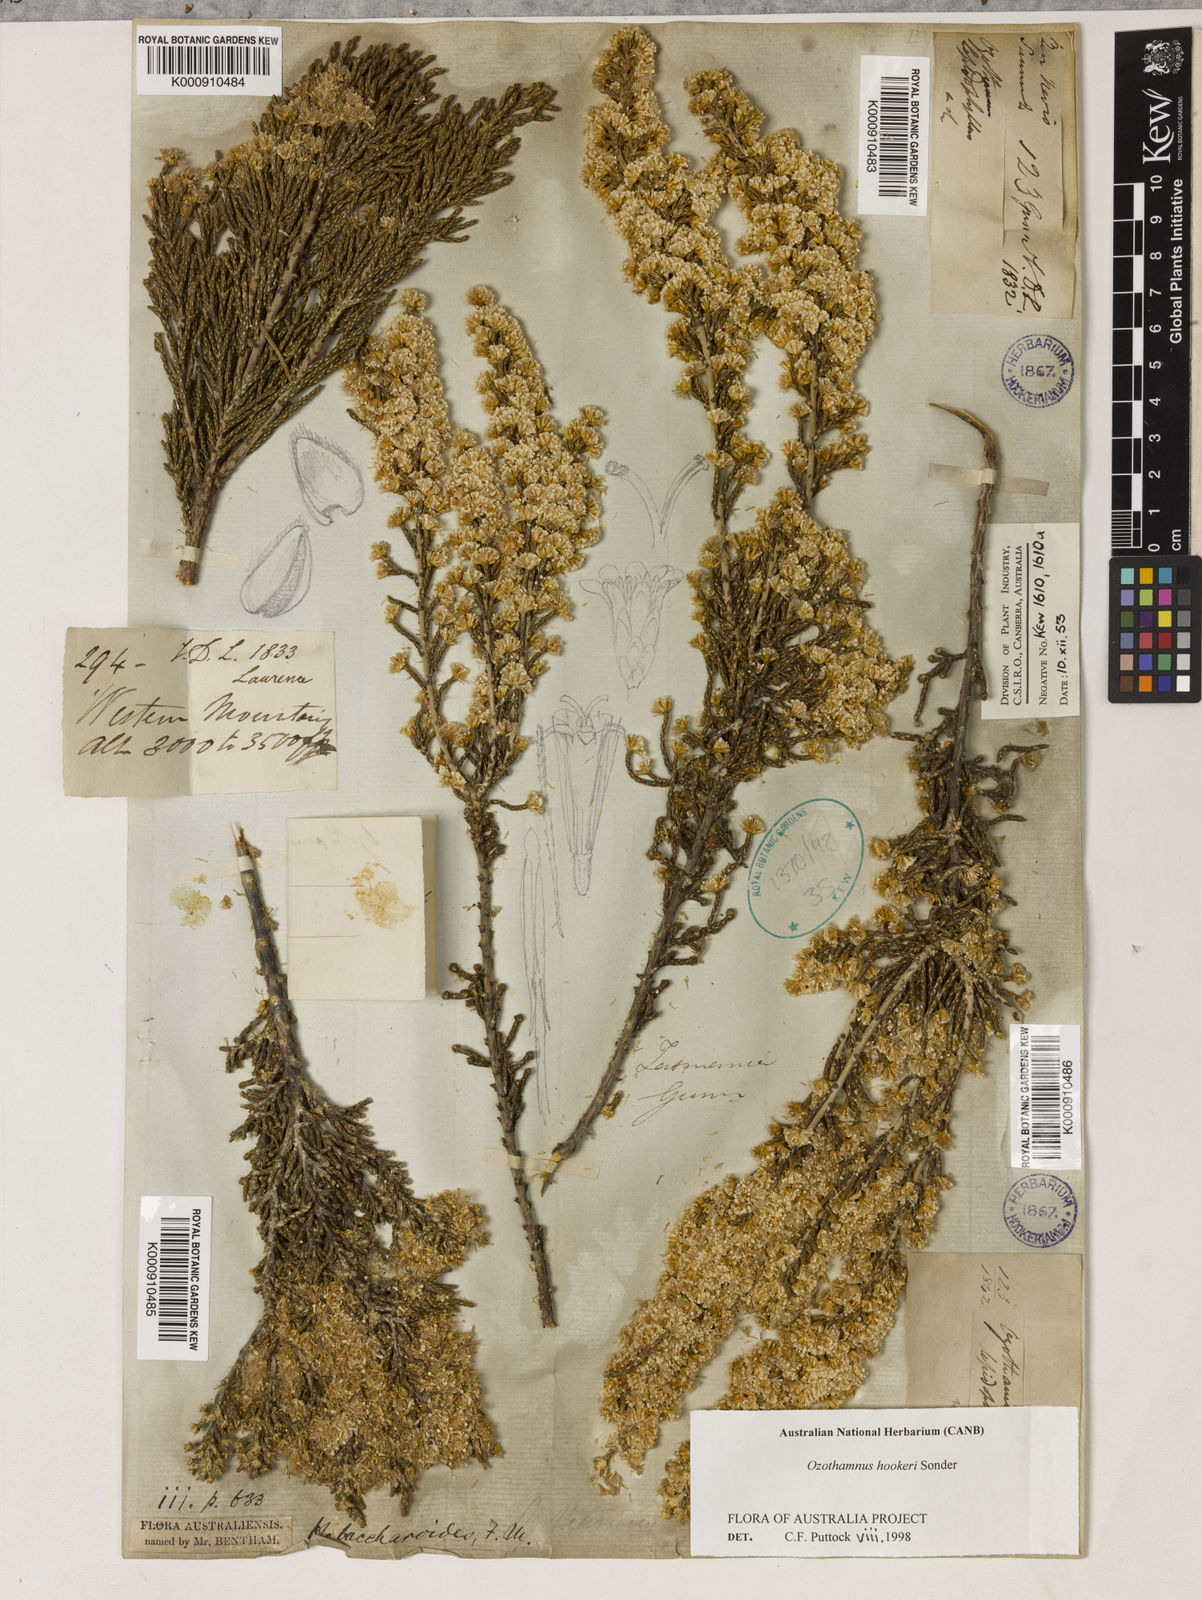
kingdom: Plantae
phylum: Tracheophyta
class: Magnoliopsida
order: Asterales
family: Asteraceae
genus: Ozothamnus
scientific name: Ozothamnus hookeri
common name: Kerosene-bush
